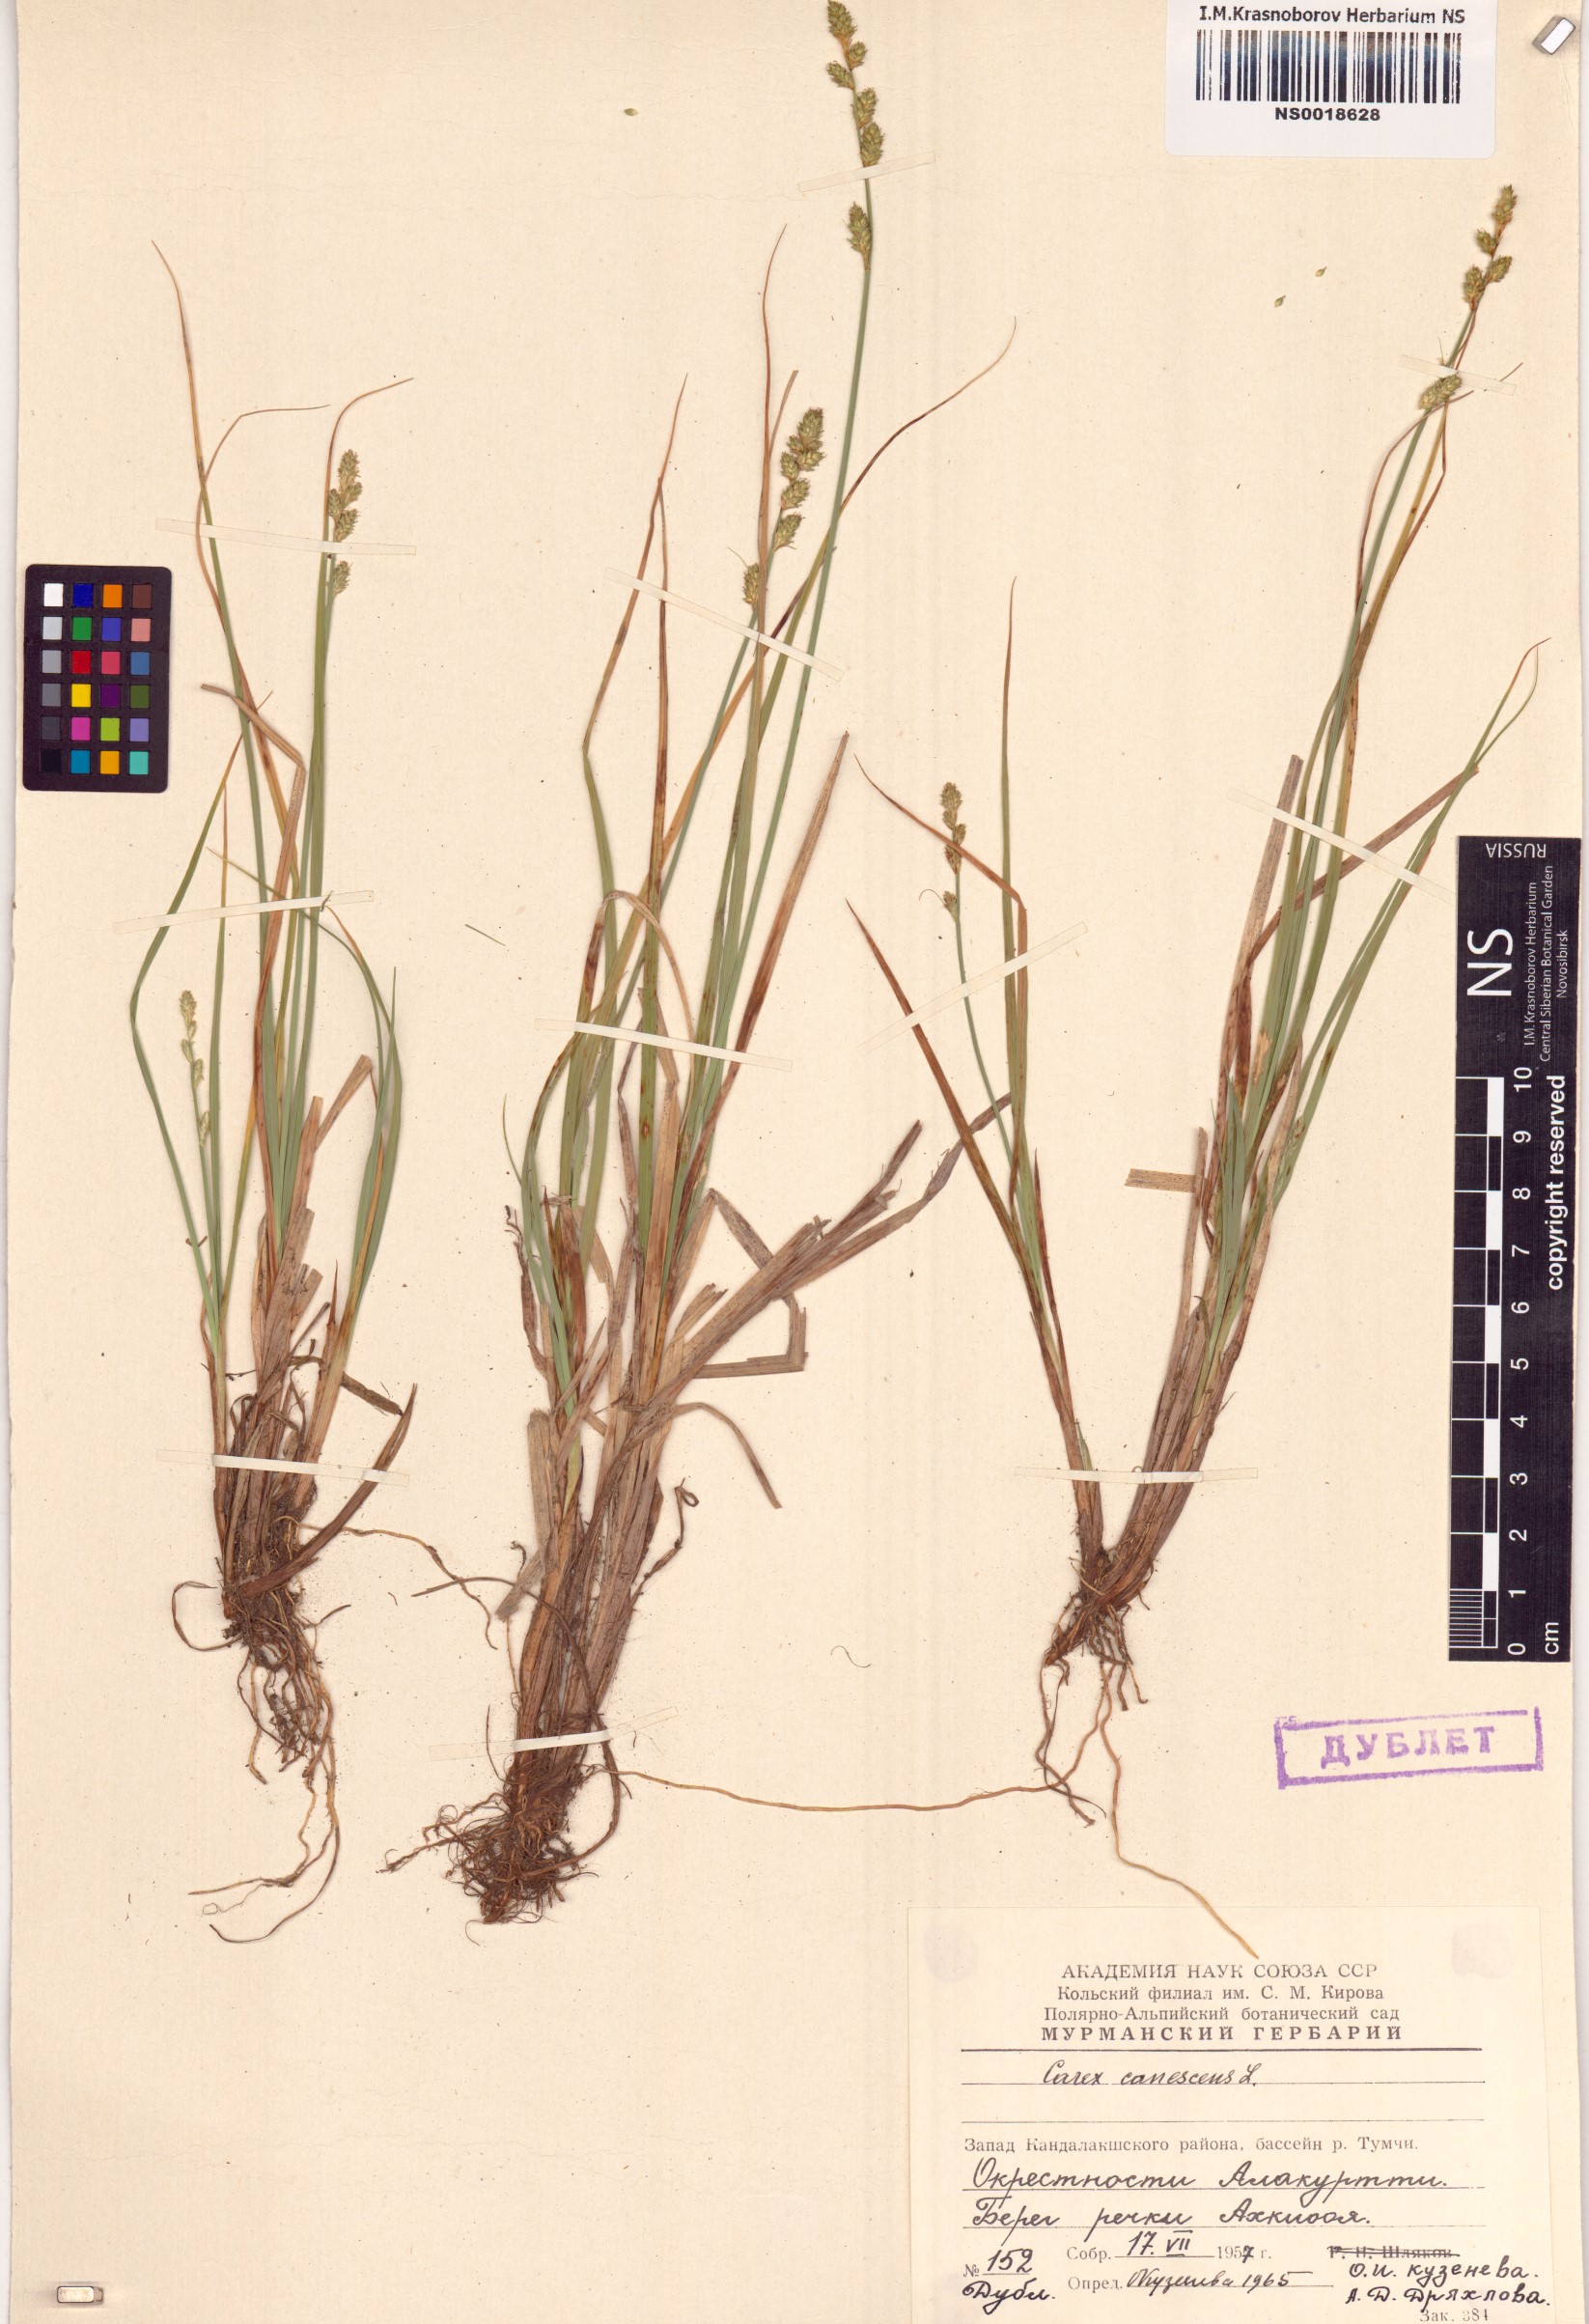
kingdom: Plantae
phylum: Tracheophyta
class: Liliopsida
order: Poales
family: Cyperaceae
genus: Carex
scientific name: Carex canescens
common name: White sedge
